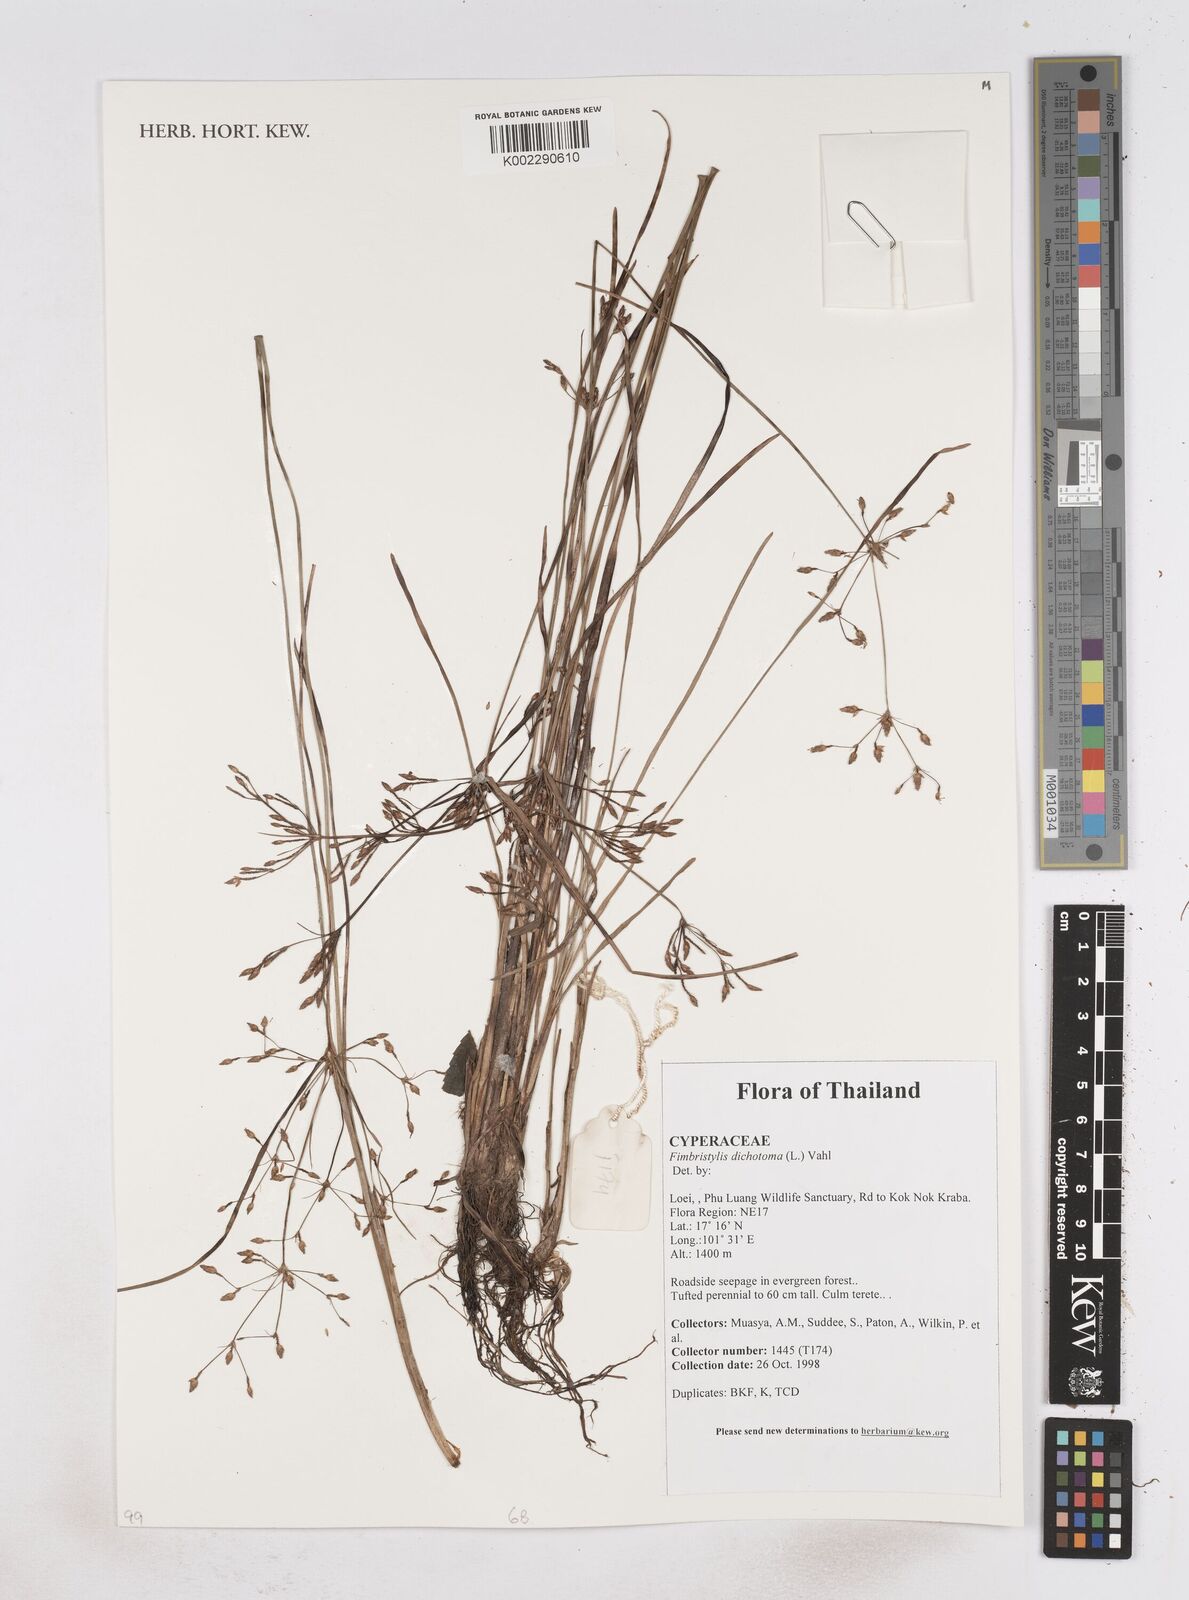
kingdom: Plantae
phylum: Tracheophyta
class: Liliopsida
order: Poales
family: Cyperaceae
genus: Fimbristylis
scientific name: Fimbristylis dichotoma
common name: Forked fimbry
